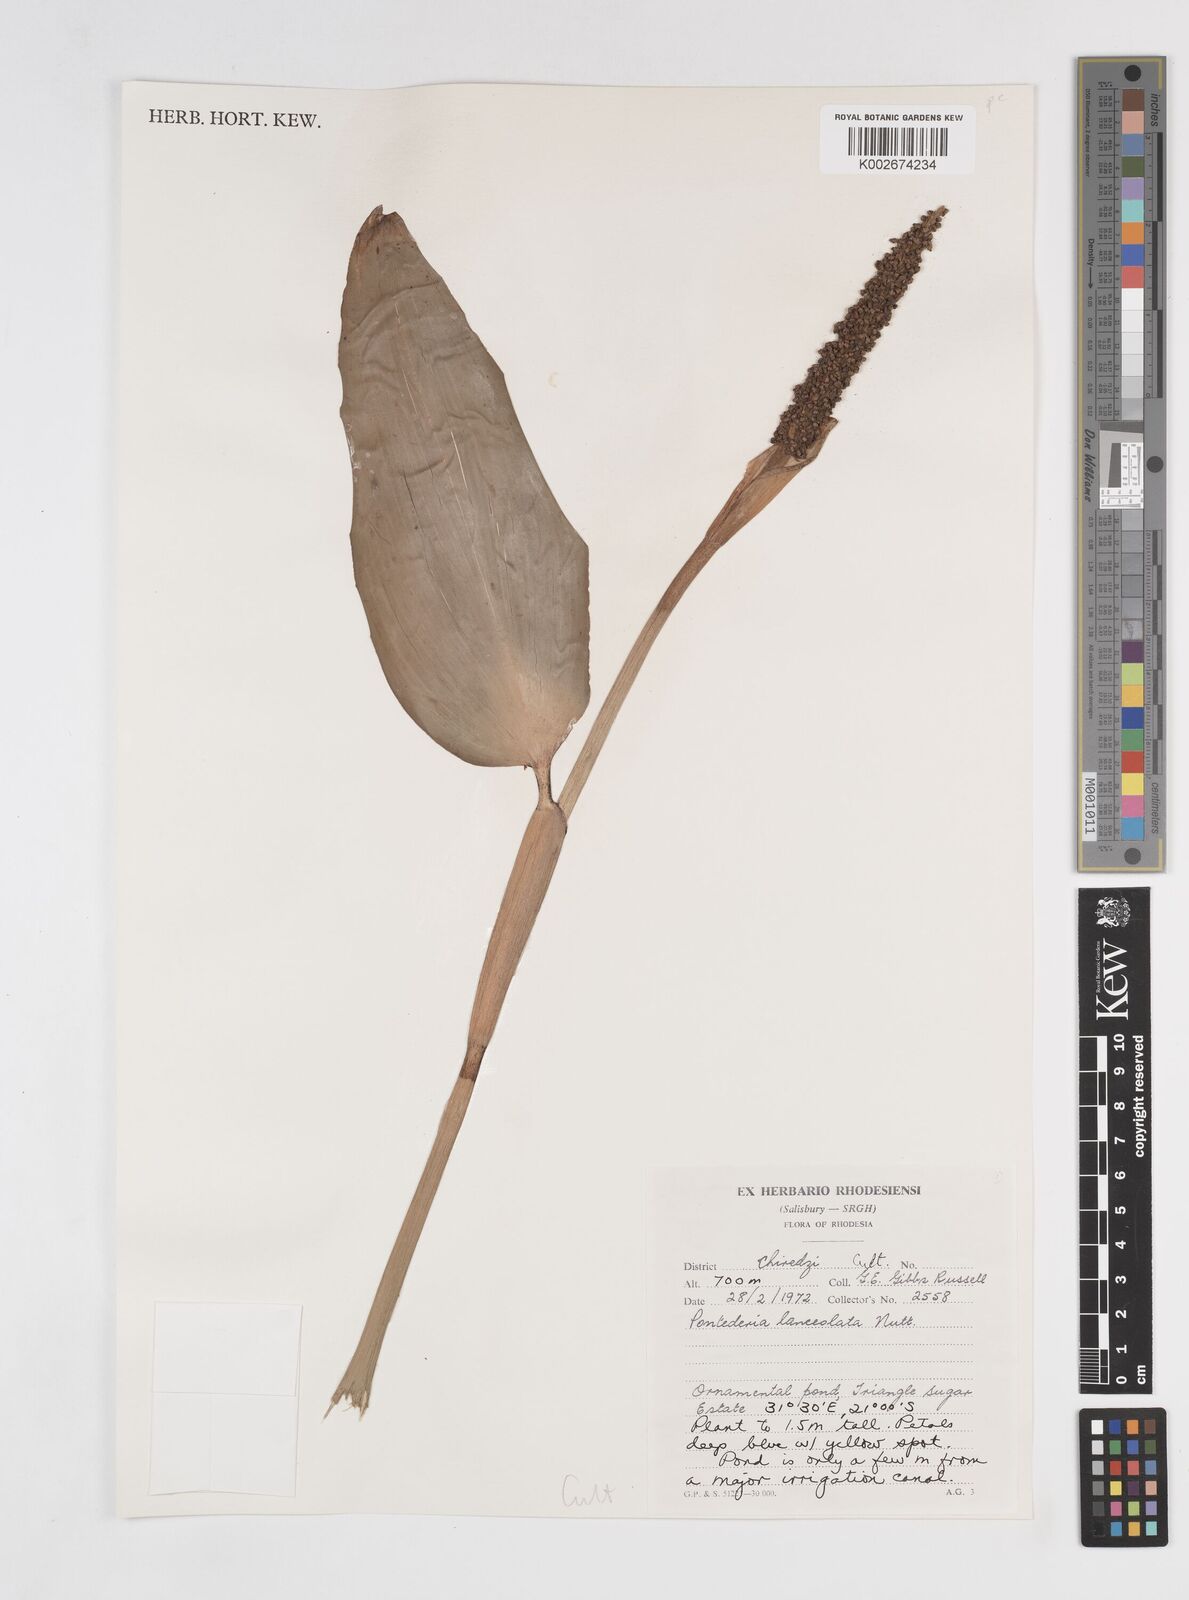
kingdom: Plantae
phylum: Tracheophyta
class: Liliopsida
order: Commelinales
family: Pontederiaceae
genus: Pontederia
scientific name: Pontederia
